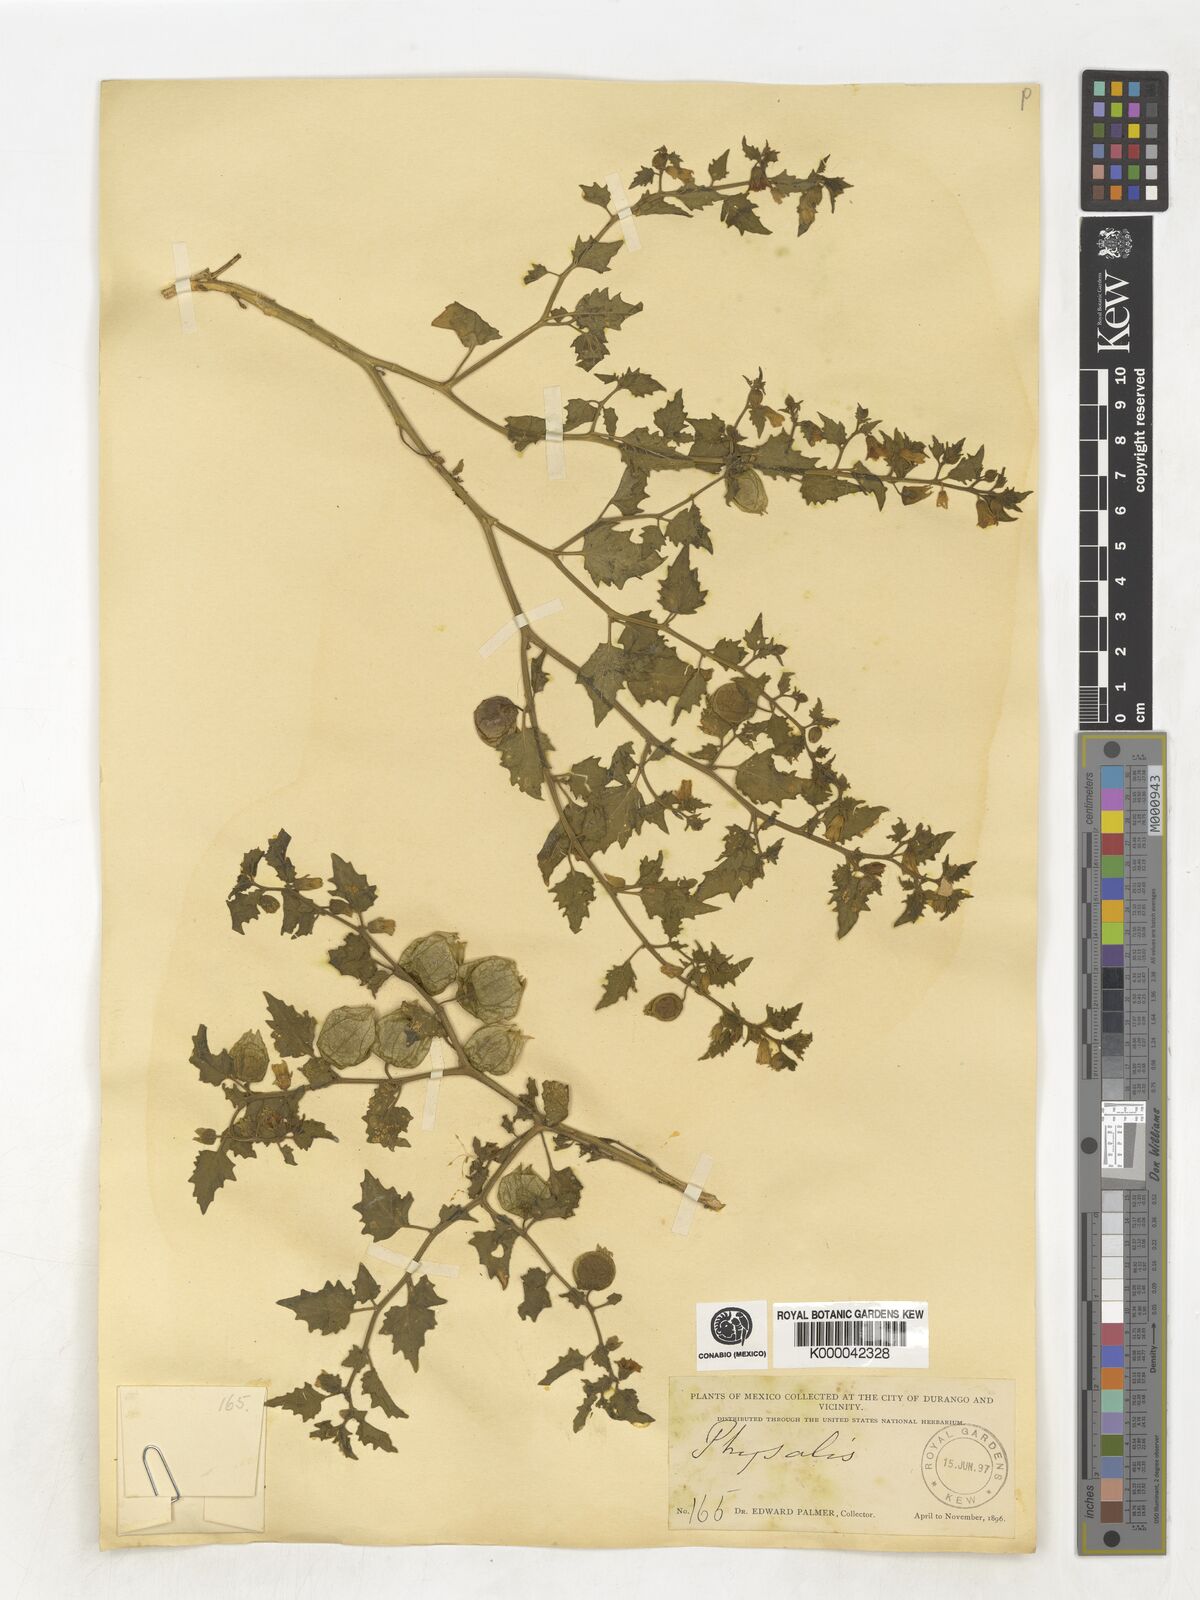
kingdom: Plantae
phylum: Tracheophyta
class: Magnoliopsida
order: Solanales
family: Solanaceae
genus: Physalis
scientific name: Physalis
